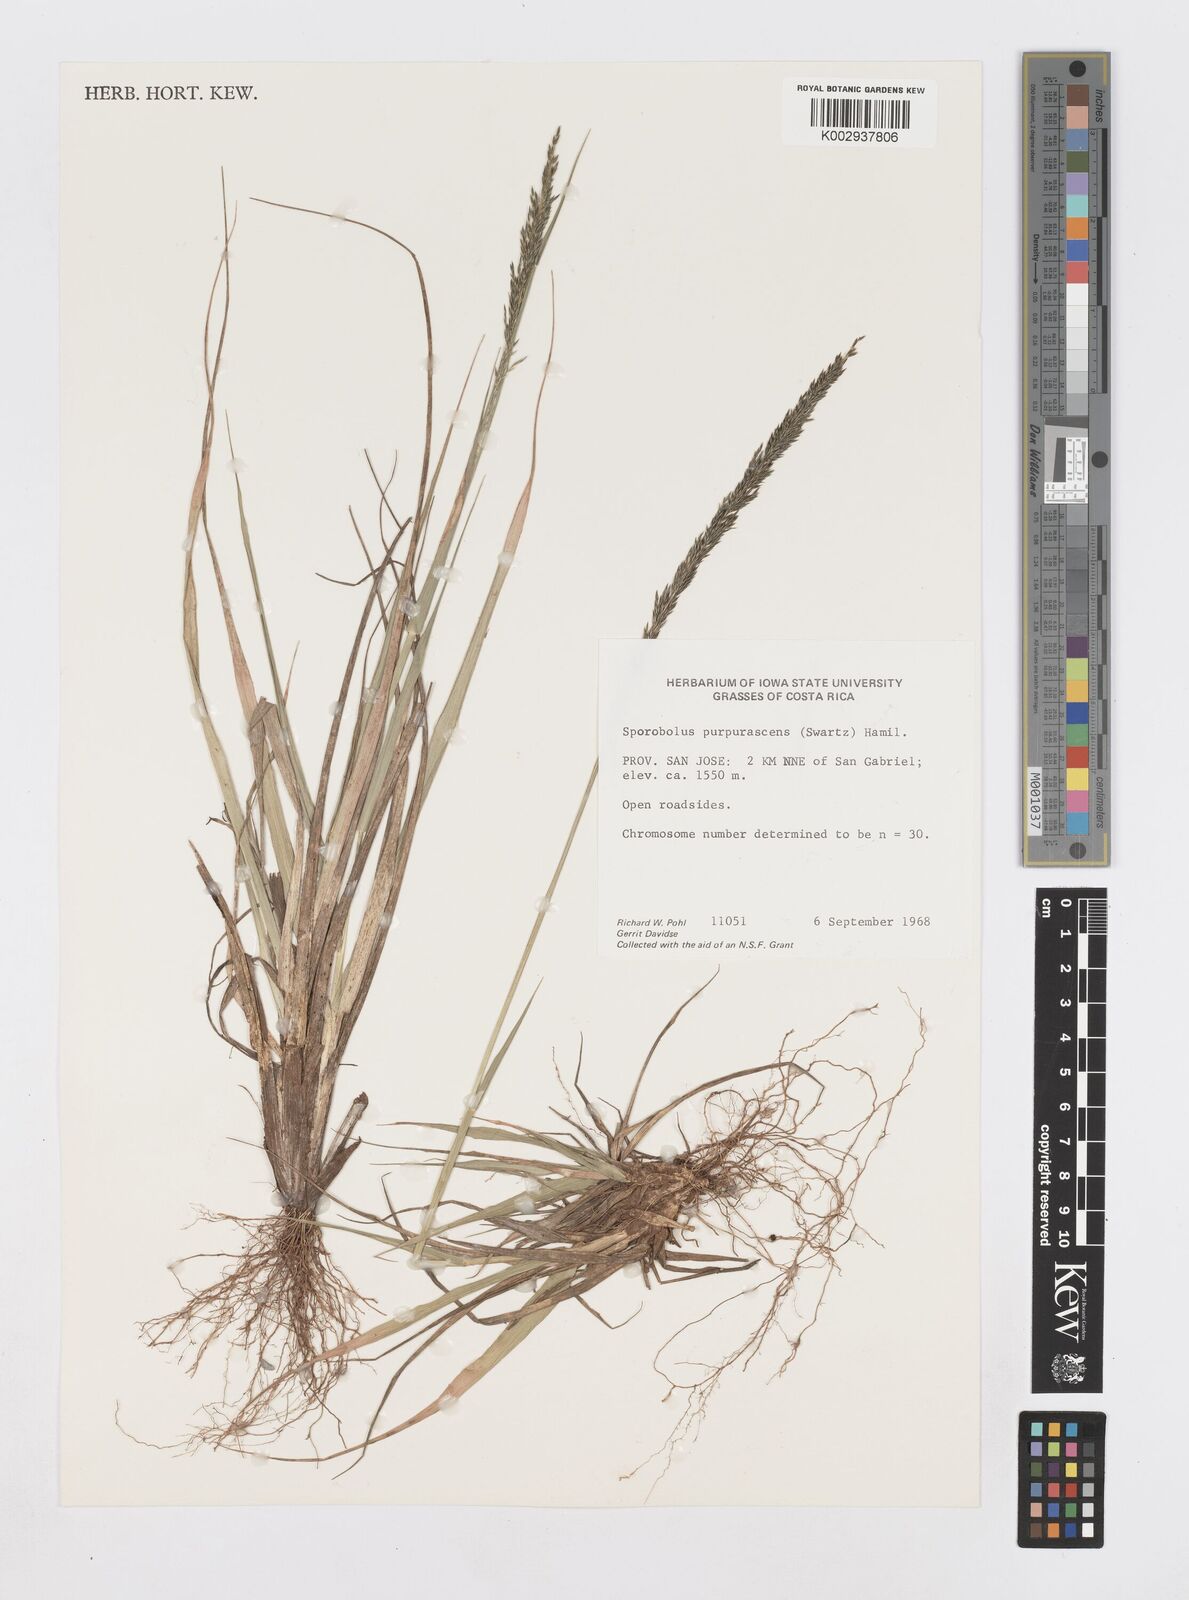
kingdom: Plantae
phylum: Tracheophyta
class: Liliopsida
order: Poales
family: Poaceae
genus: Sporobolus
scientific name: Sporobolus purpurascens
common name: Purple dropseed
